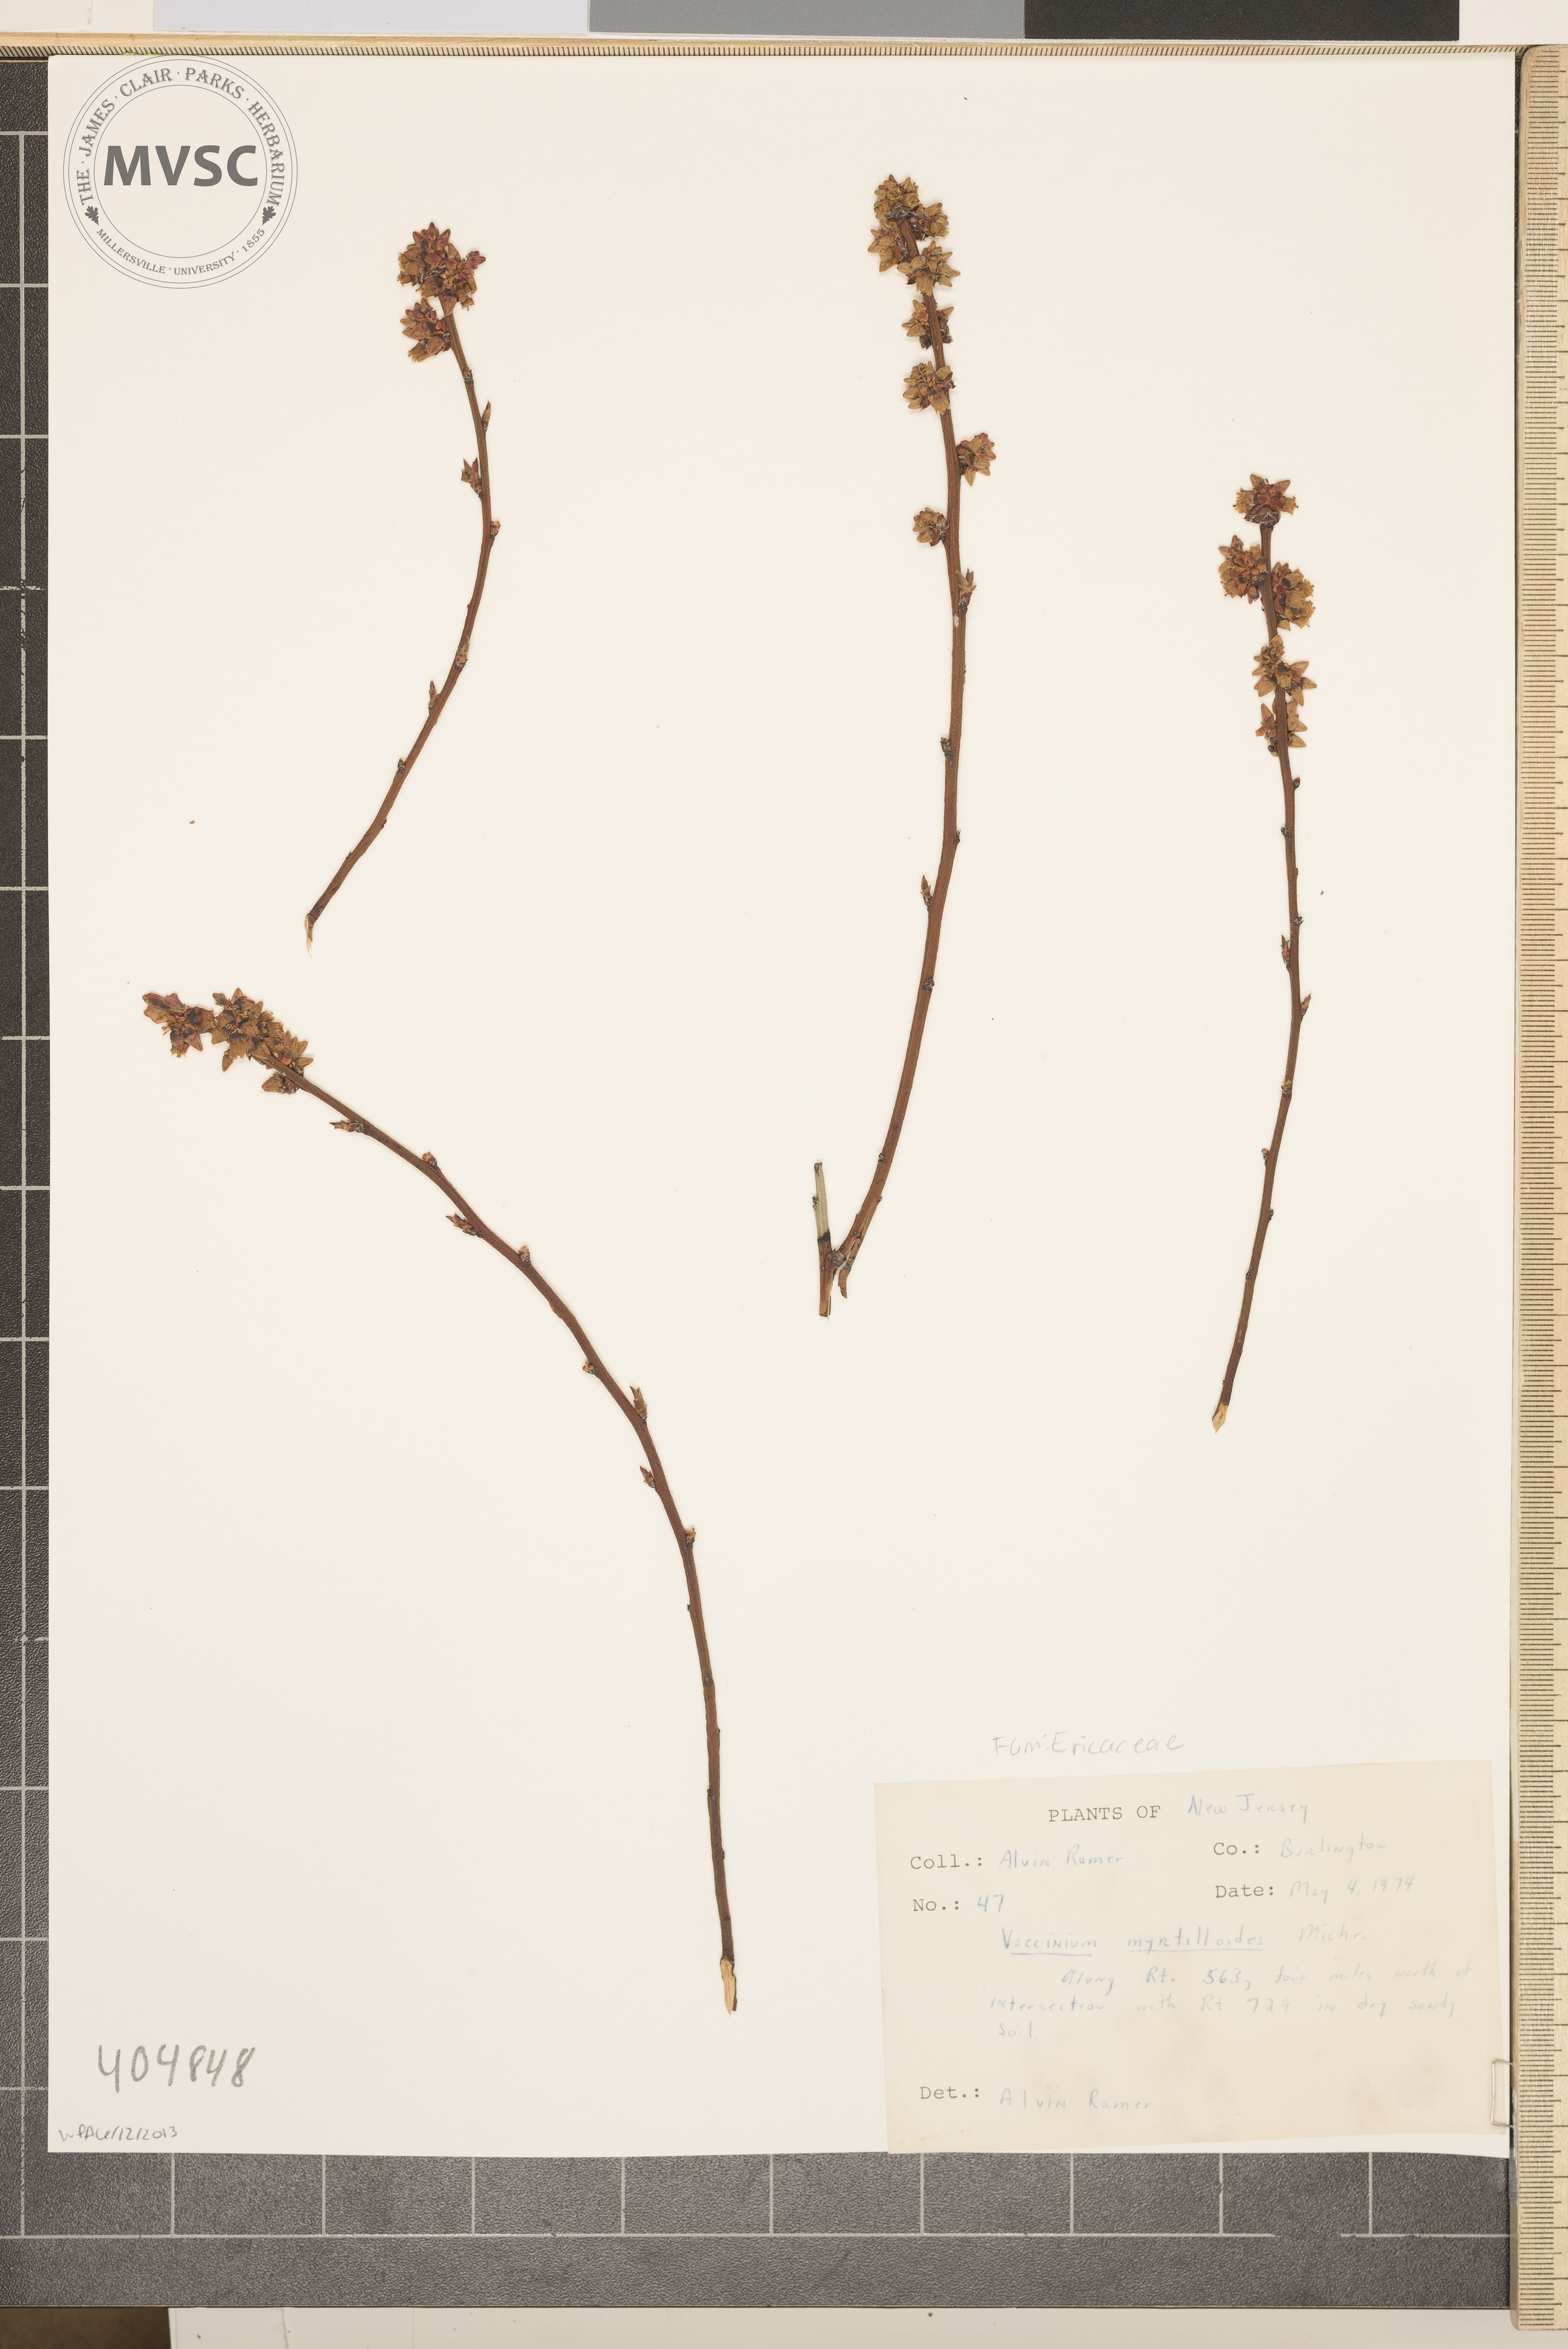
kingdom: Plantae
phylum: Tracheophyta
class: Magnoliopsida
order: Ericales
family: Ericaceae
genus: Vaccinium
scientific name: Vaccinium pallidum
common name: Blue ridge blueberry
